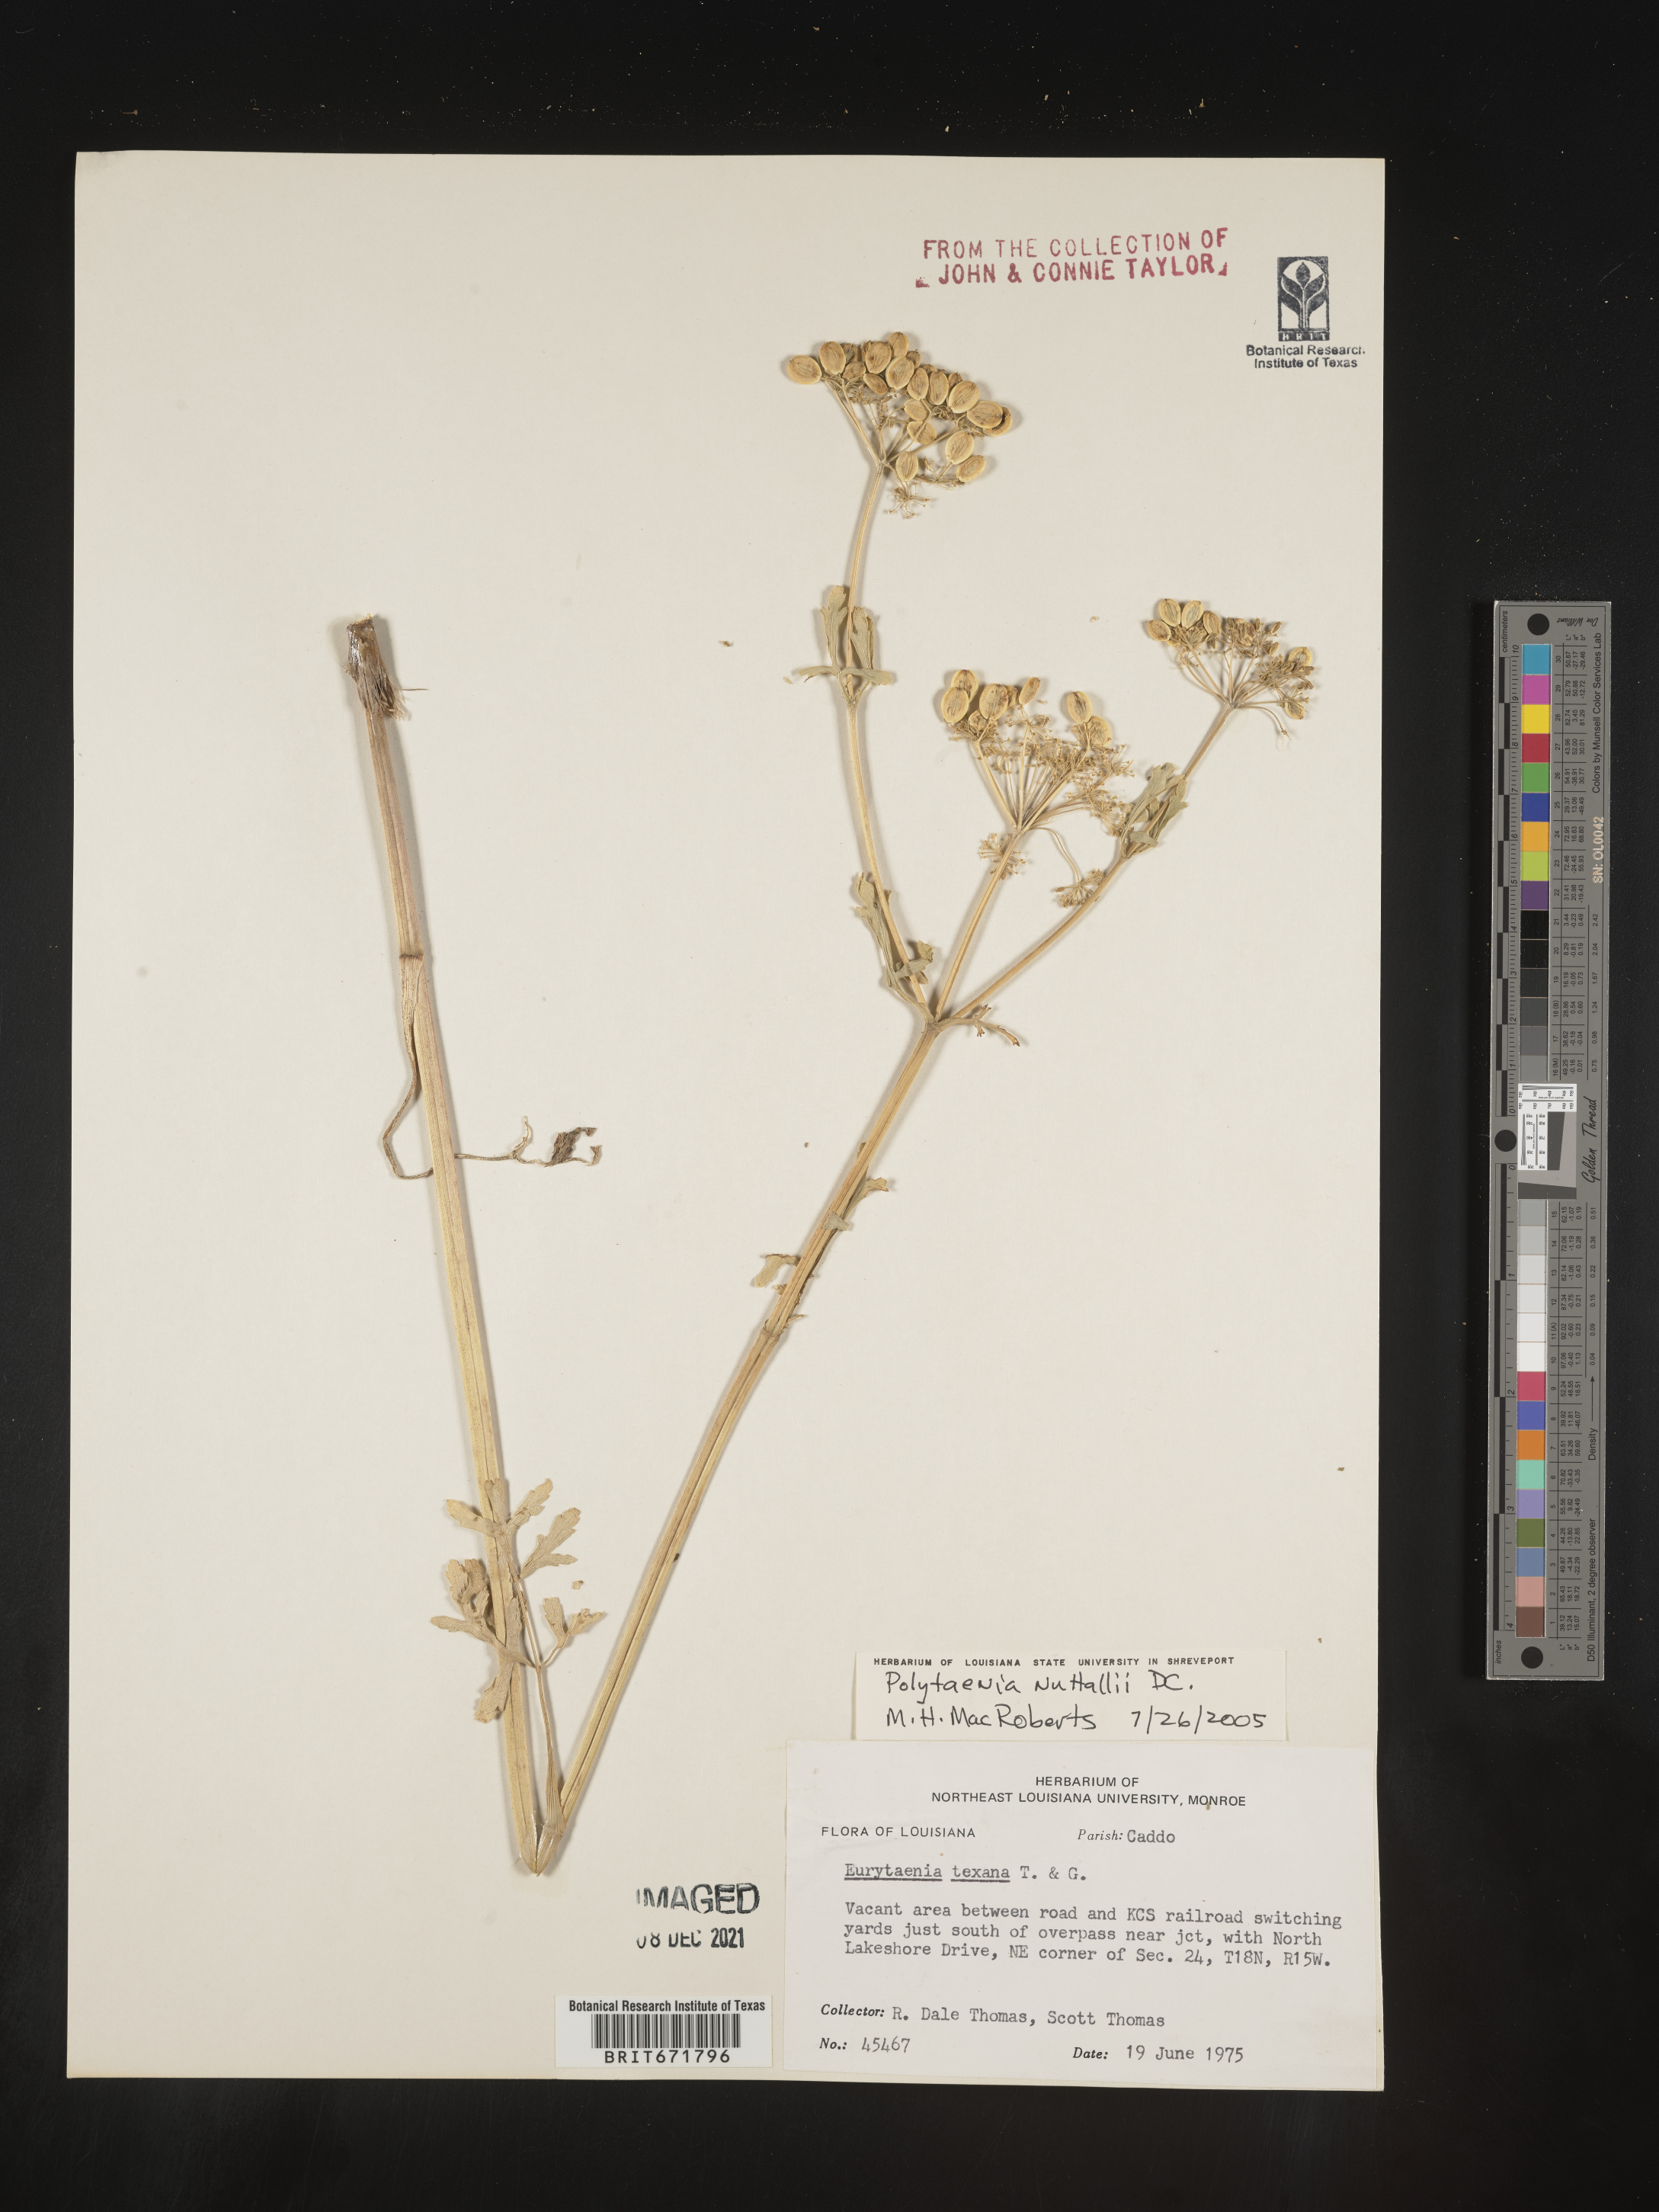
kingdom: Plantae
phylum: Tracheophyta
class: Magnoliopsida
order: Apiales
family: Apiaceae
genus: Polytaenia
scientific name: Polytaenia nuttallii
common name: Prairie-parsley
